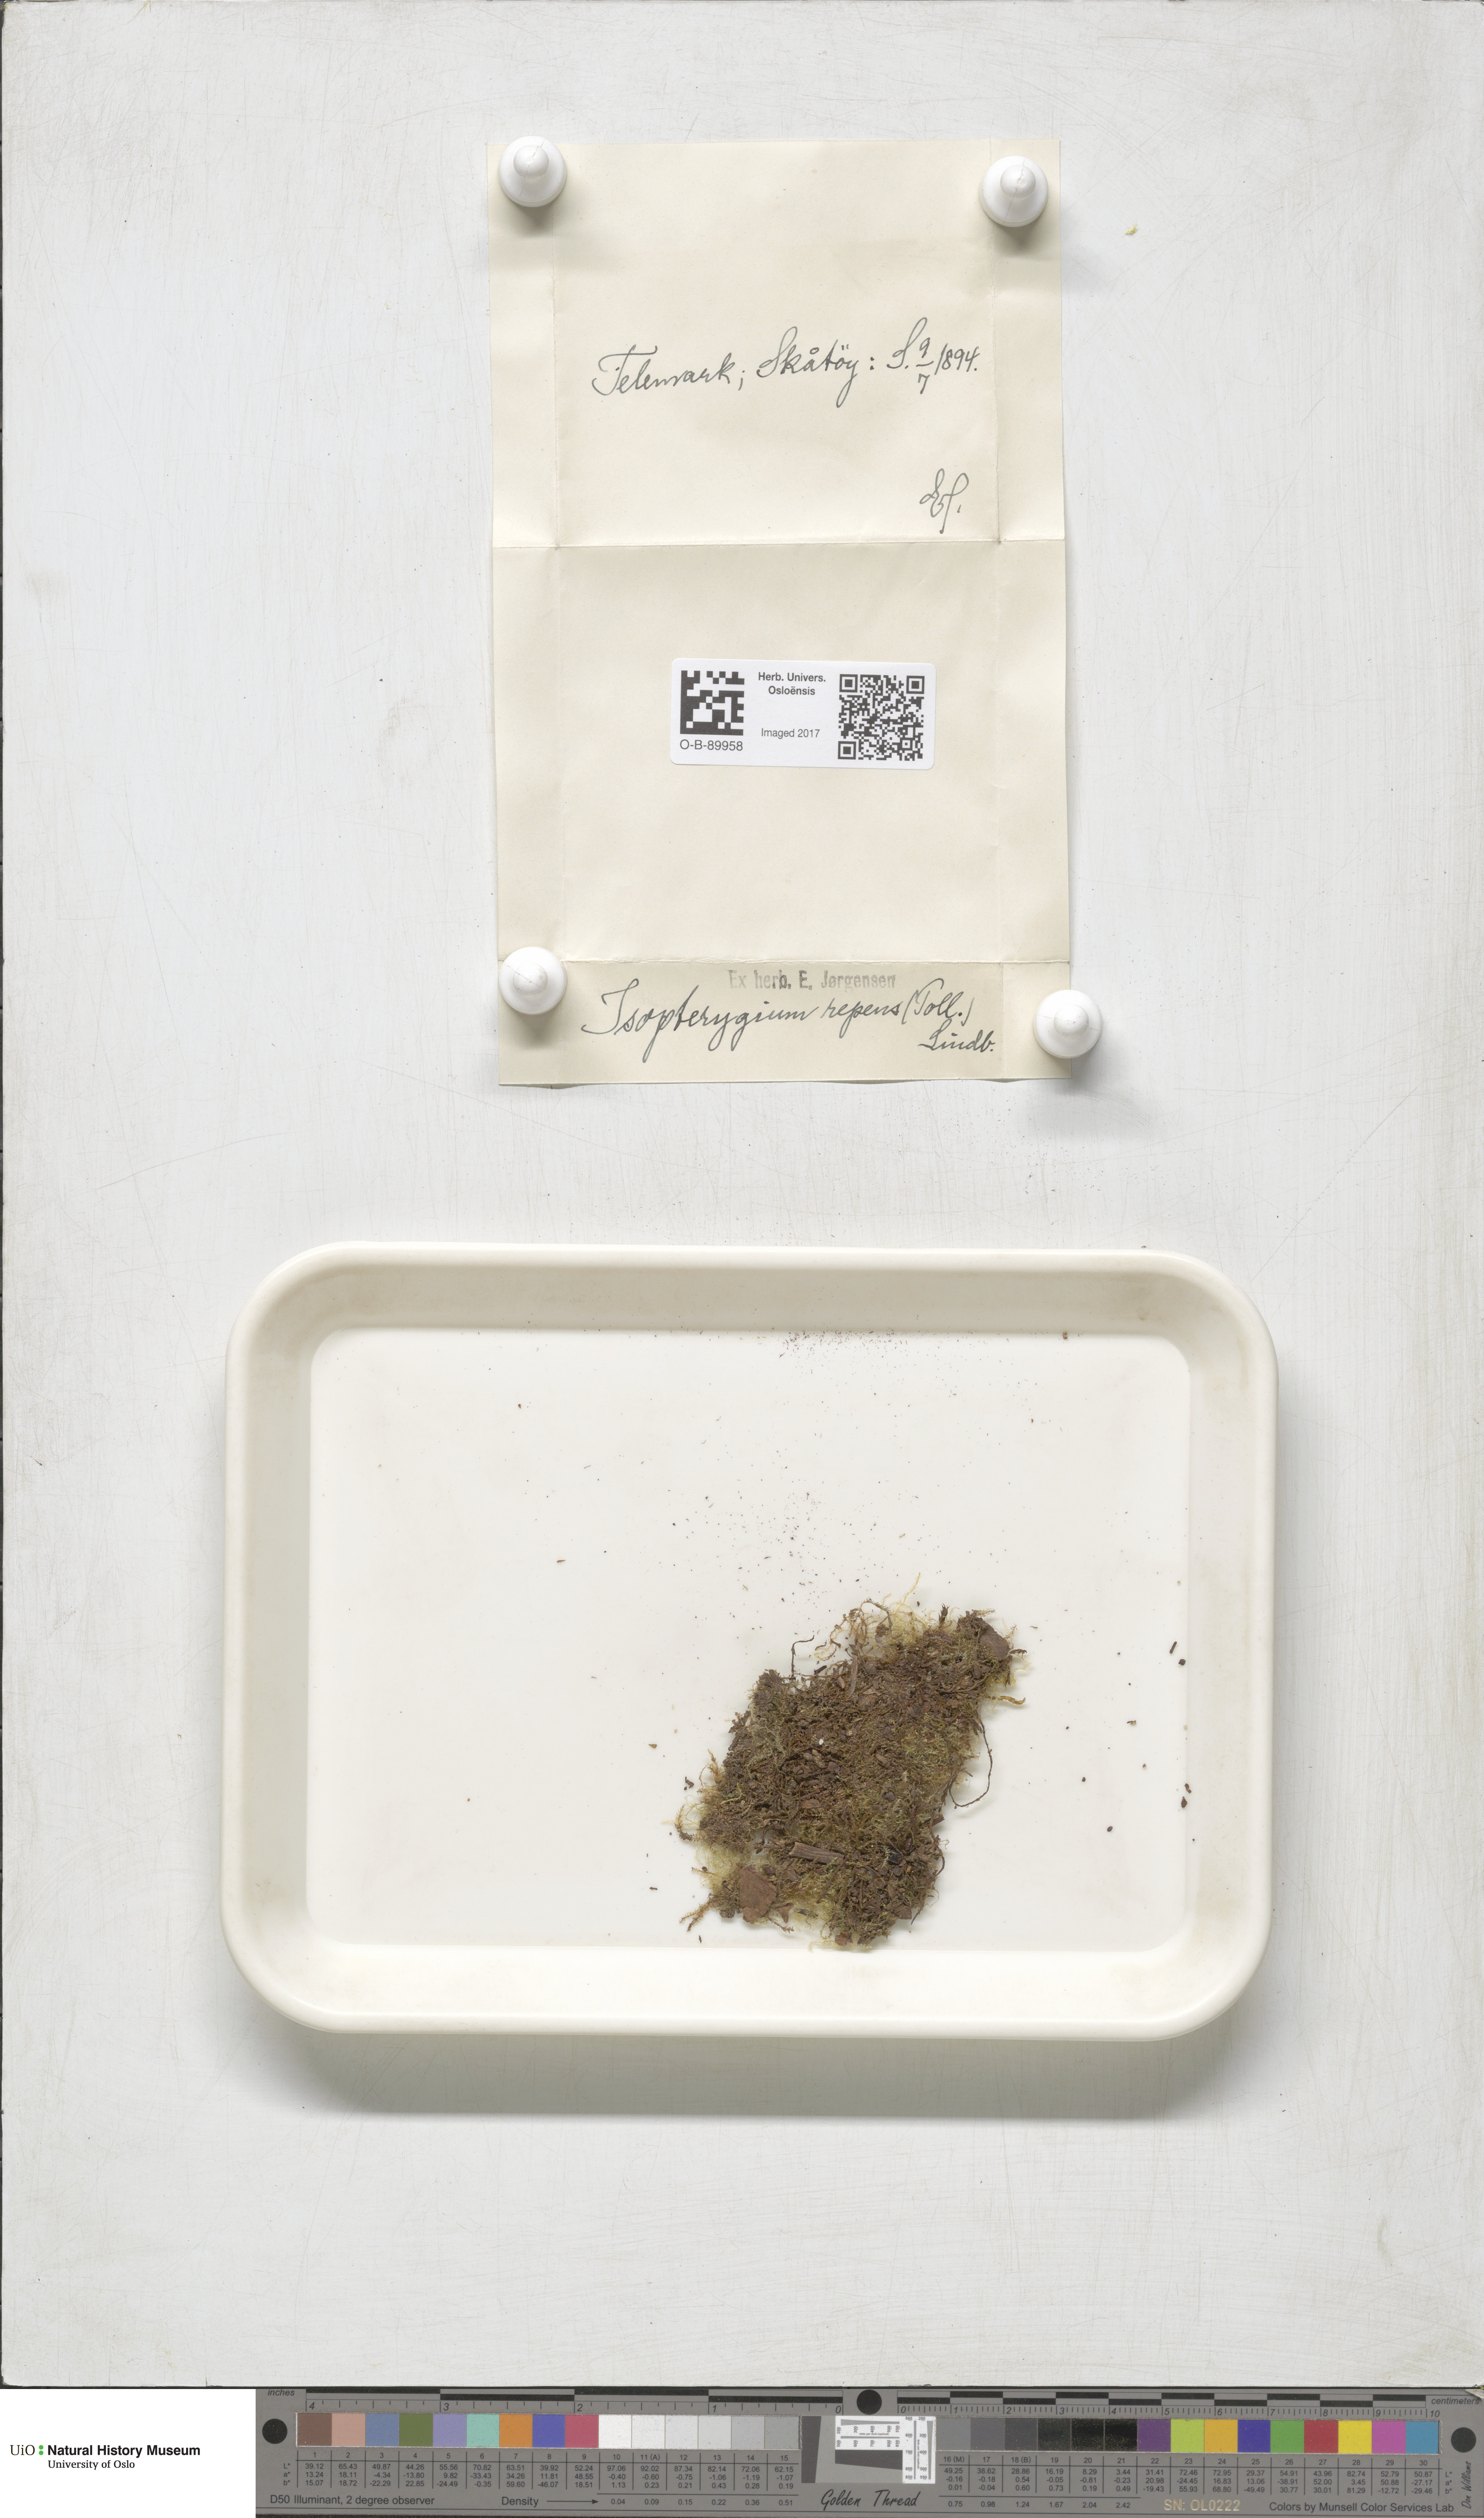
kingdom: Plantae
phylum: Bryophyta
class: Bryopsida
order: Hypnales
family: Plagiotheciaceae
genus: Herzogiella
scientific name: Herzogiella seligeri
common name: Silesian feather-moss
